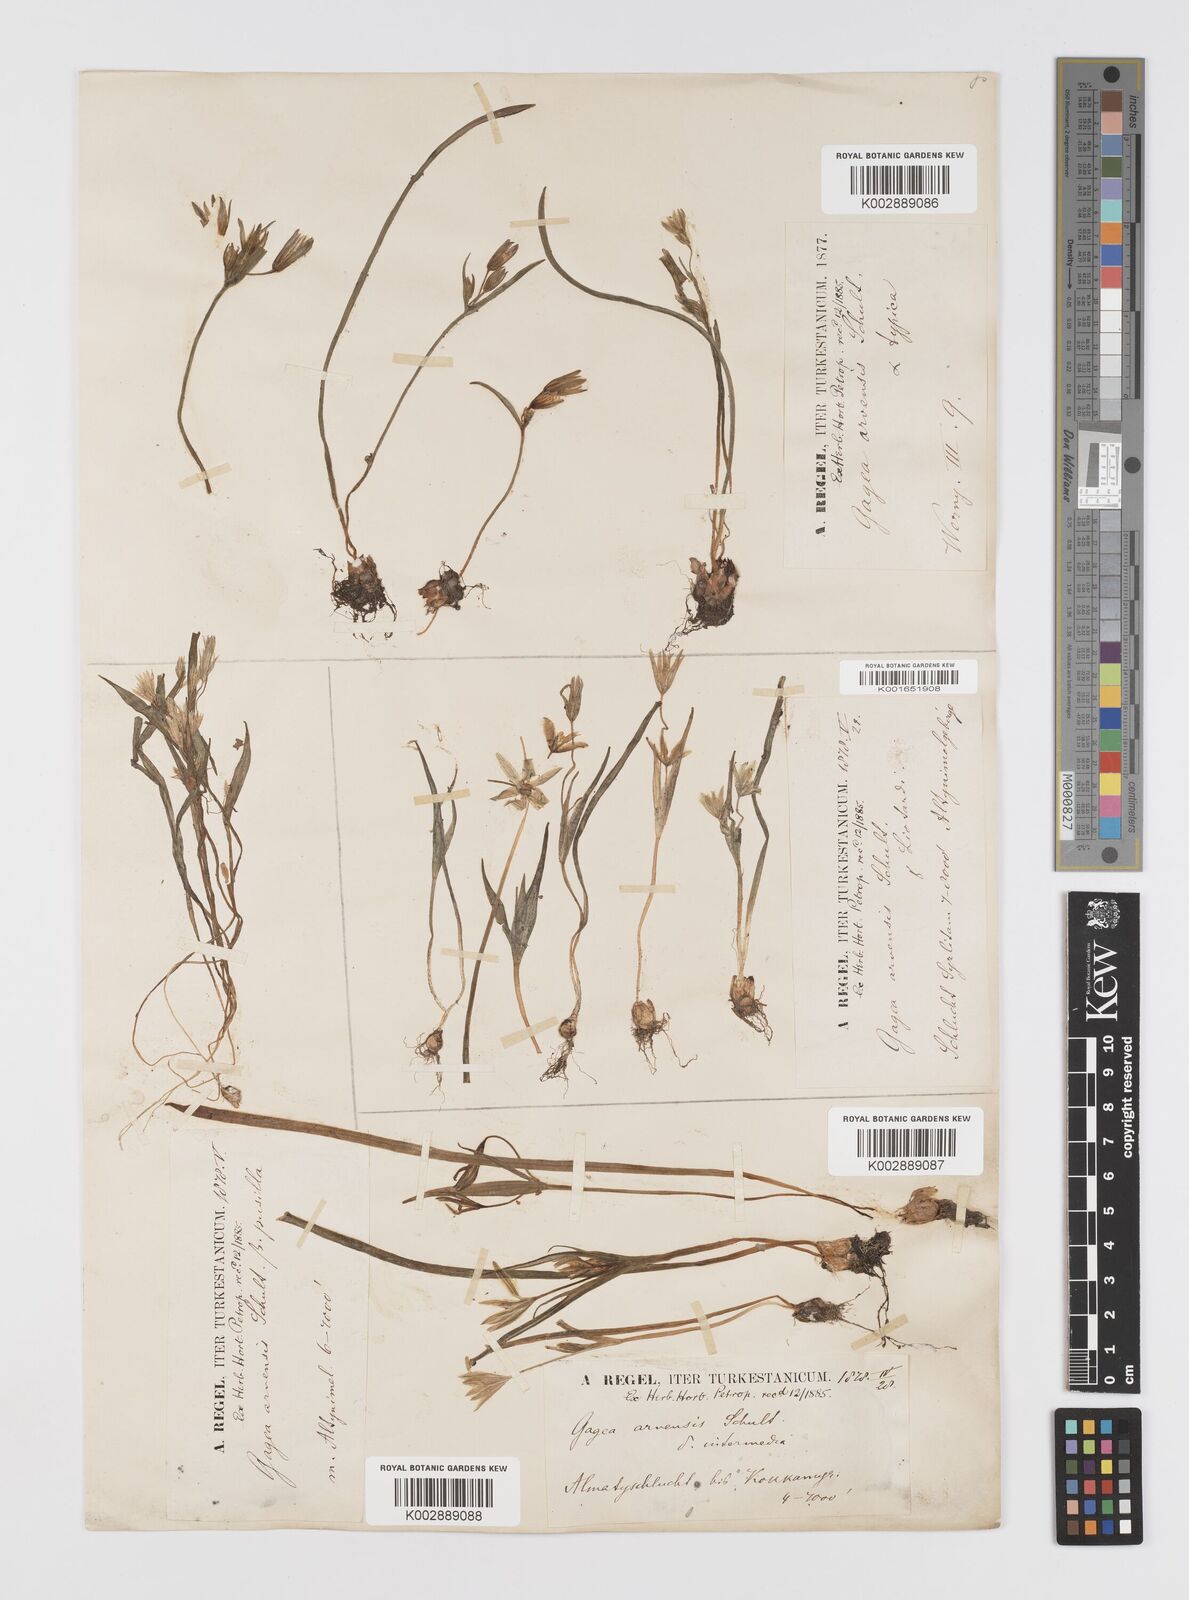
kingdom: Plantae
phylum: Tracheophyta
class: Liliopsida
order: Liliales
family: Liliaceae
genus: Gagea
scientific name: Gagea minima
